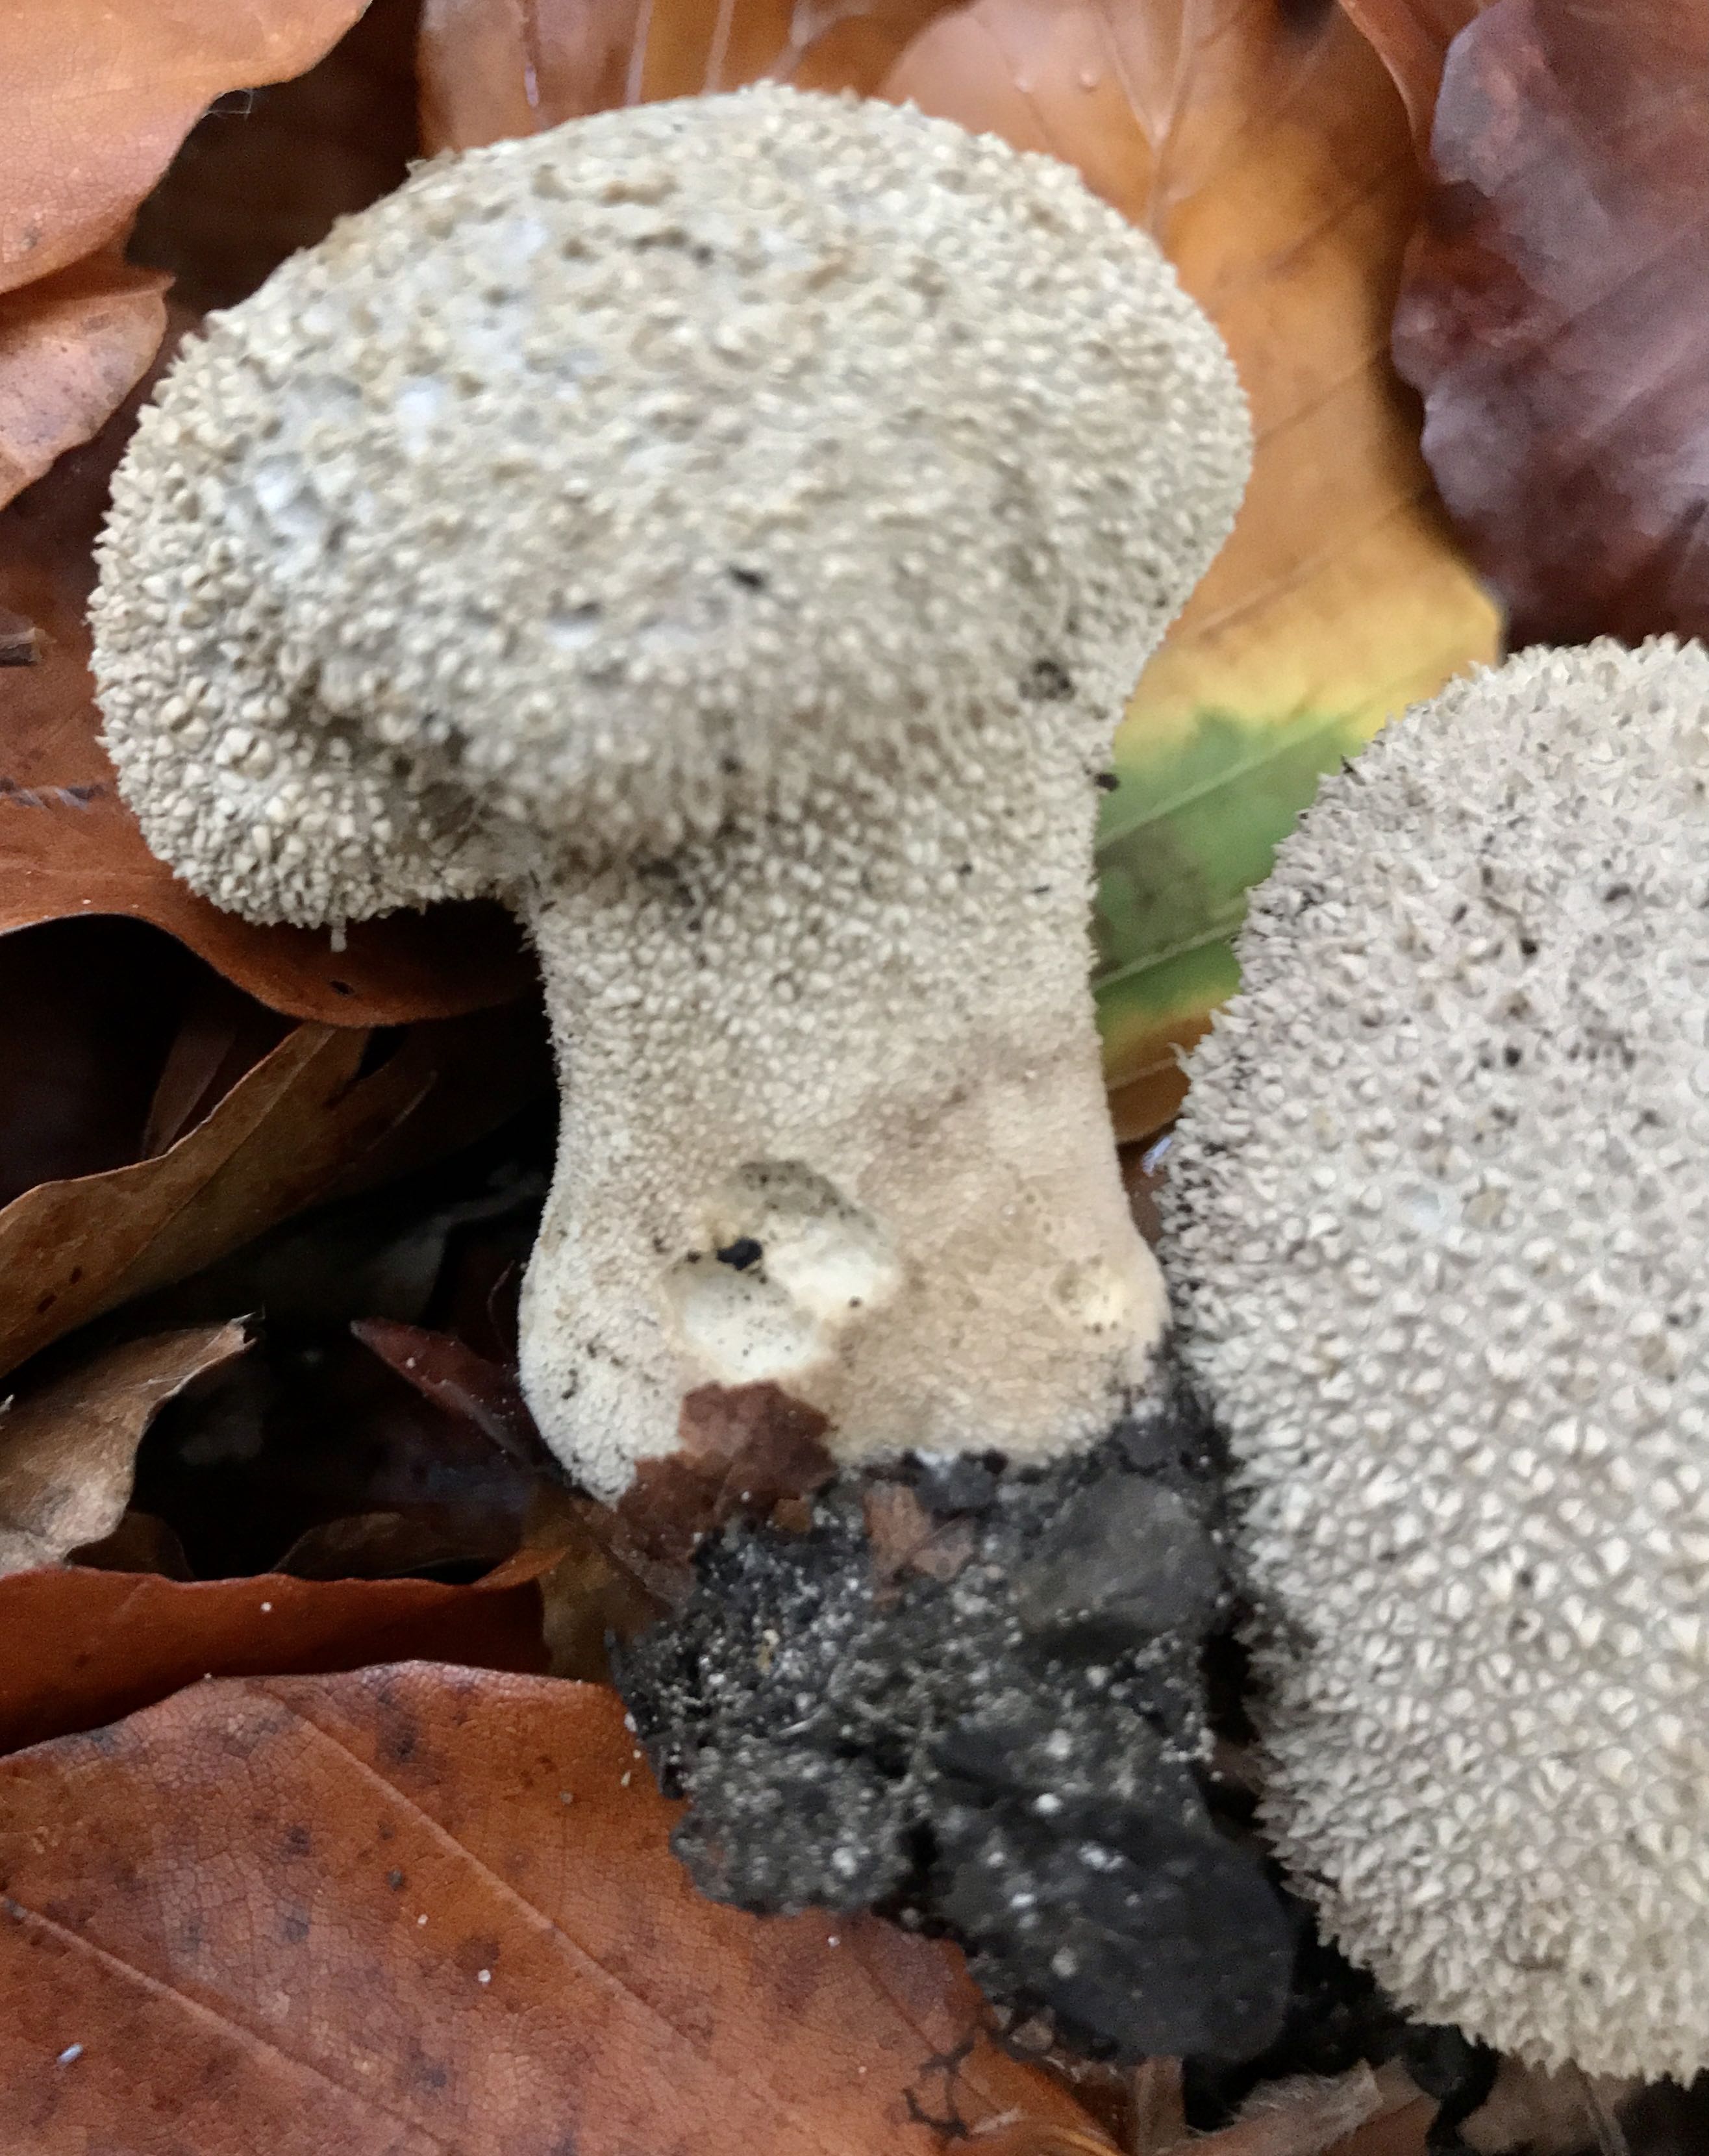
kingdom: Fungi
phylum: Basidiomycota
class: Agaricomycetes
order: Agaricales
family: Lycoperdaceae
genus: Lycoperdon
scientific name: Lycoperdon perlatum
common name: krystal-støvbold
